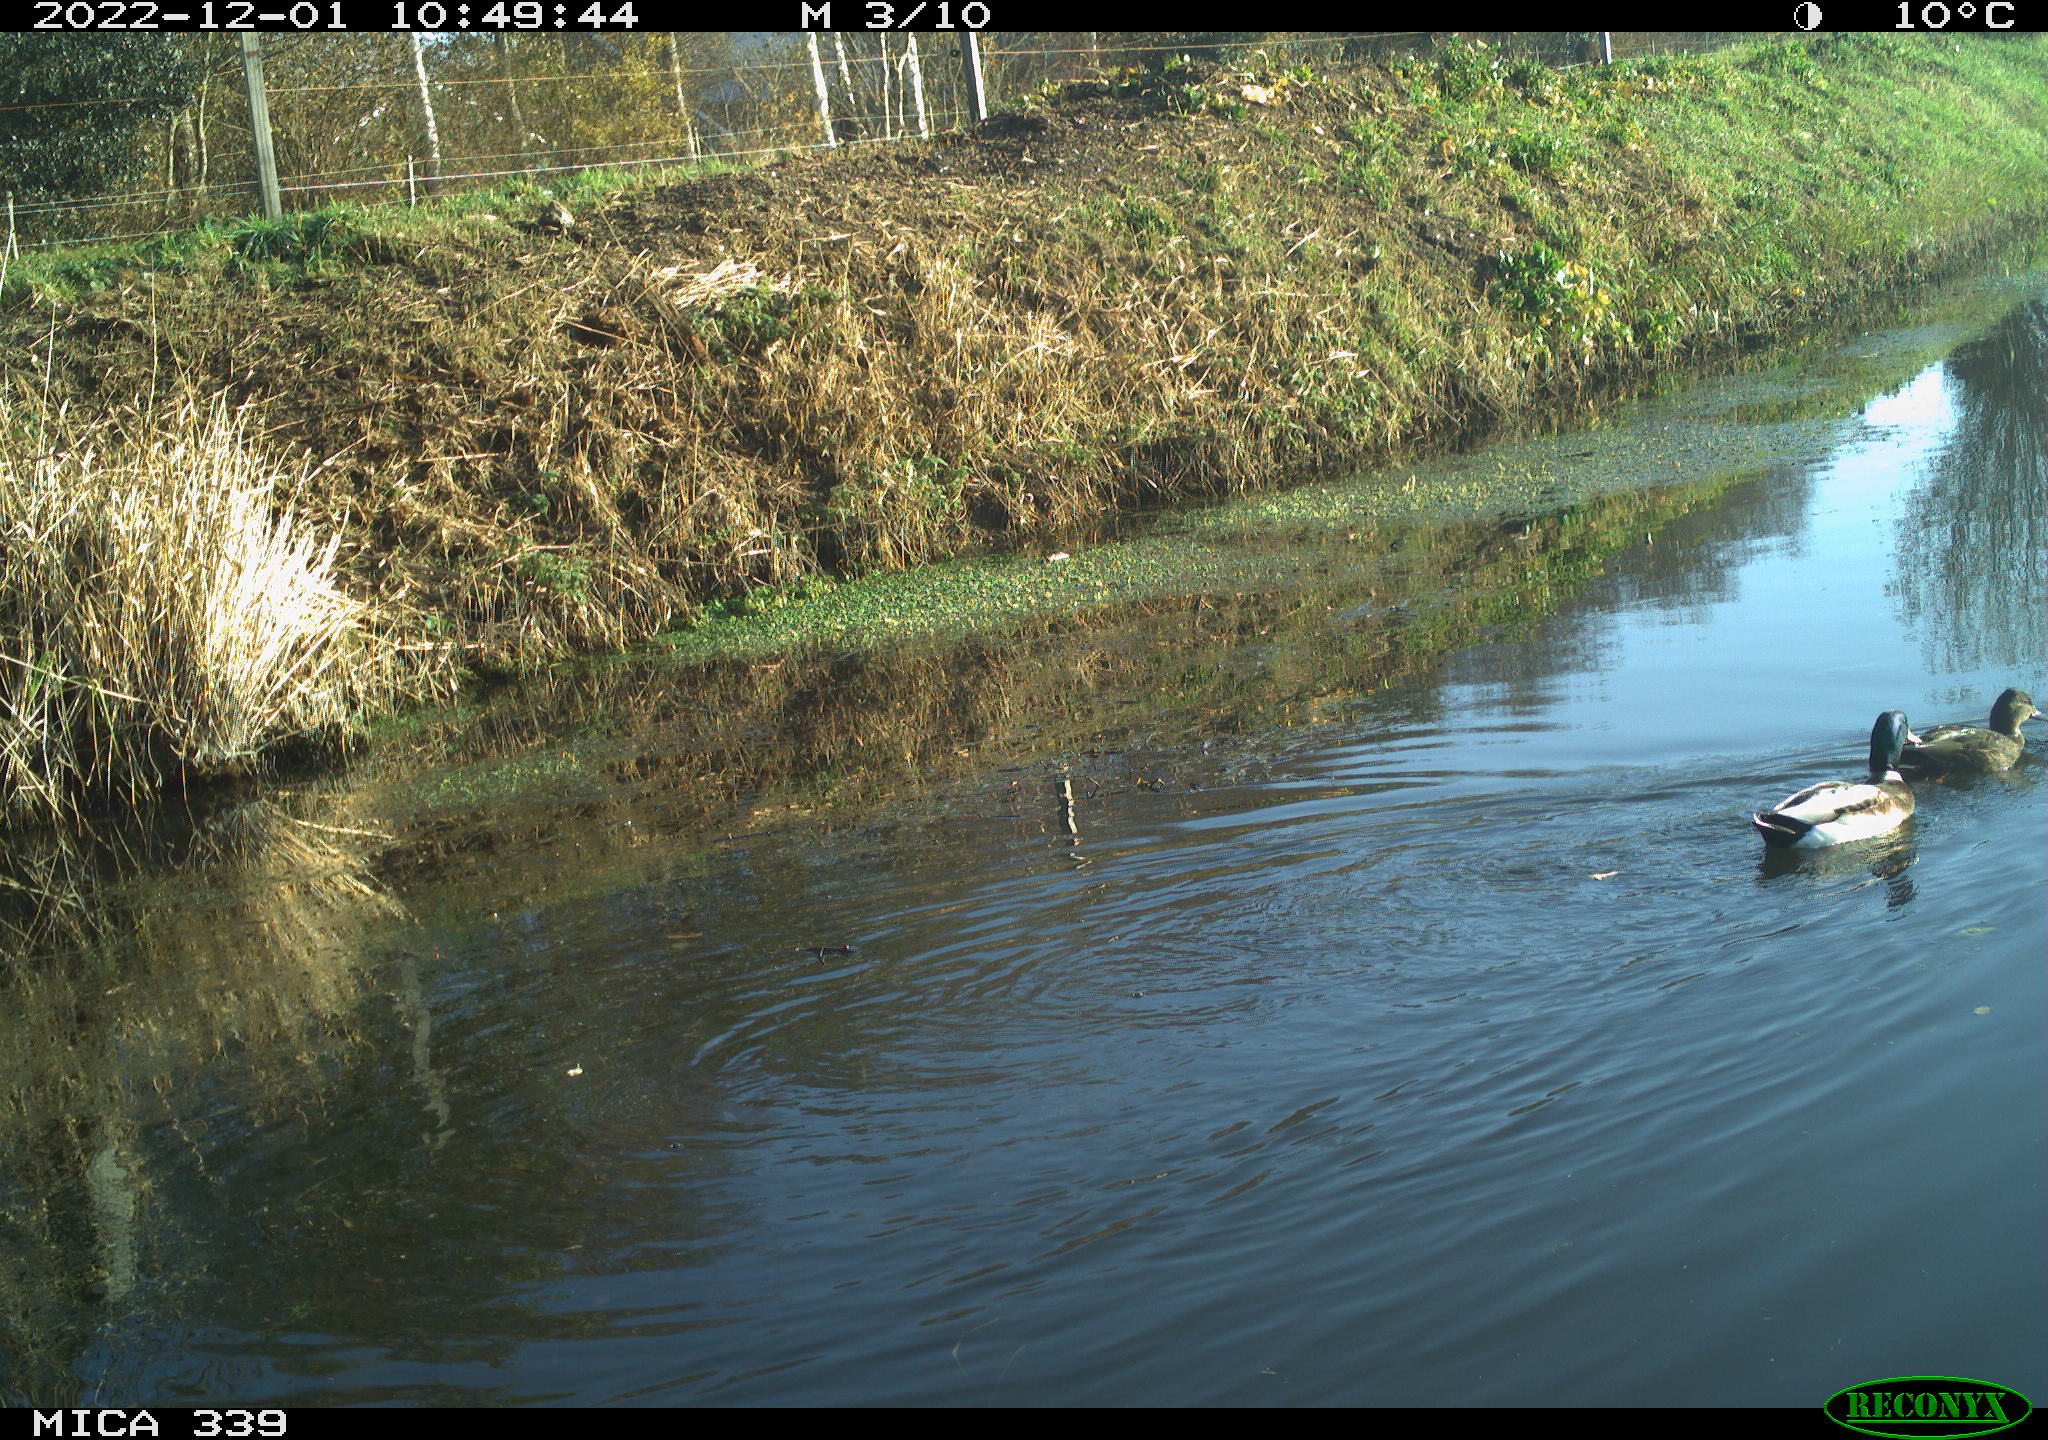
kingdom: Animalia
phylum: Chordata
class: Aves
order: Anseriformes
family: Anatidae
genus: Anas
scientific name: Anas
